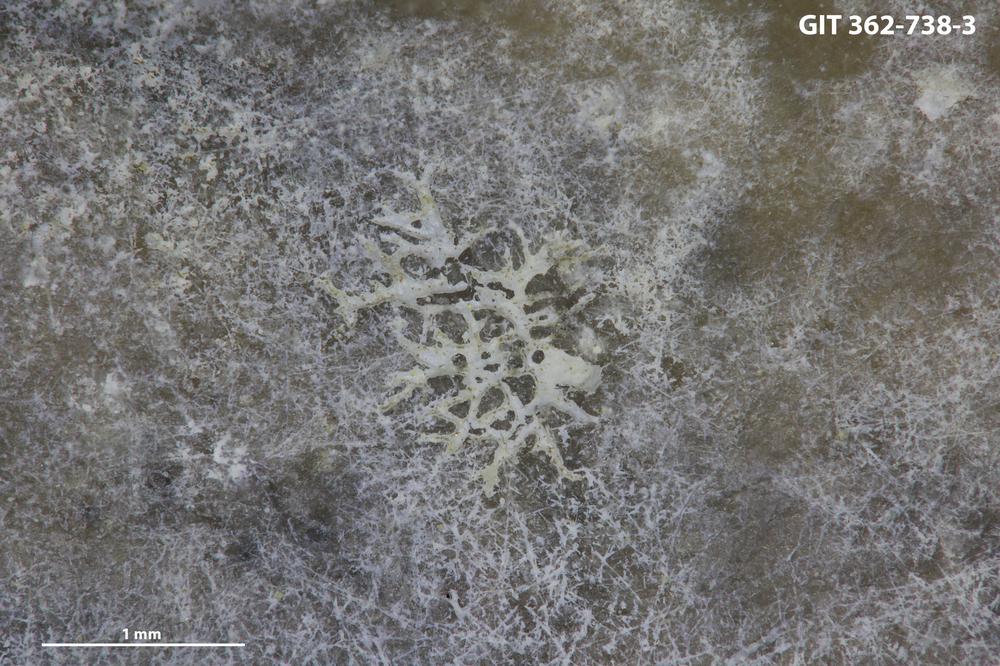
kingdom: Animalia
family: Dendrinidae
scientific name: Dendrinidae
